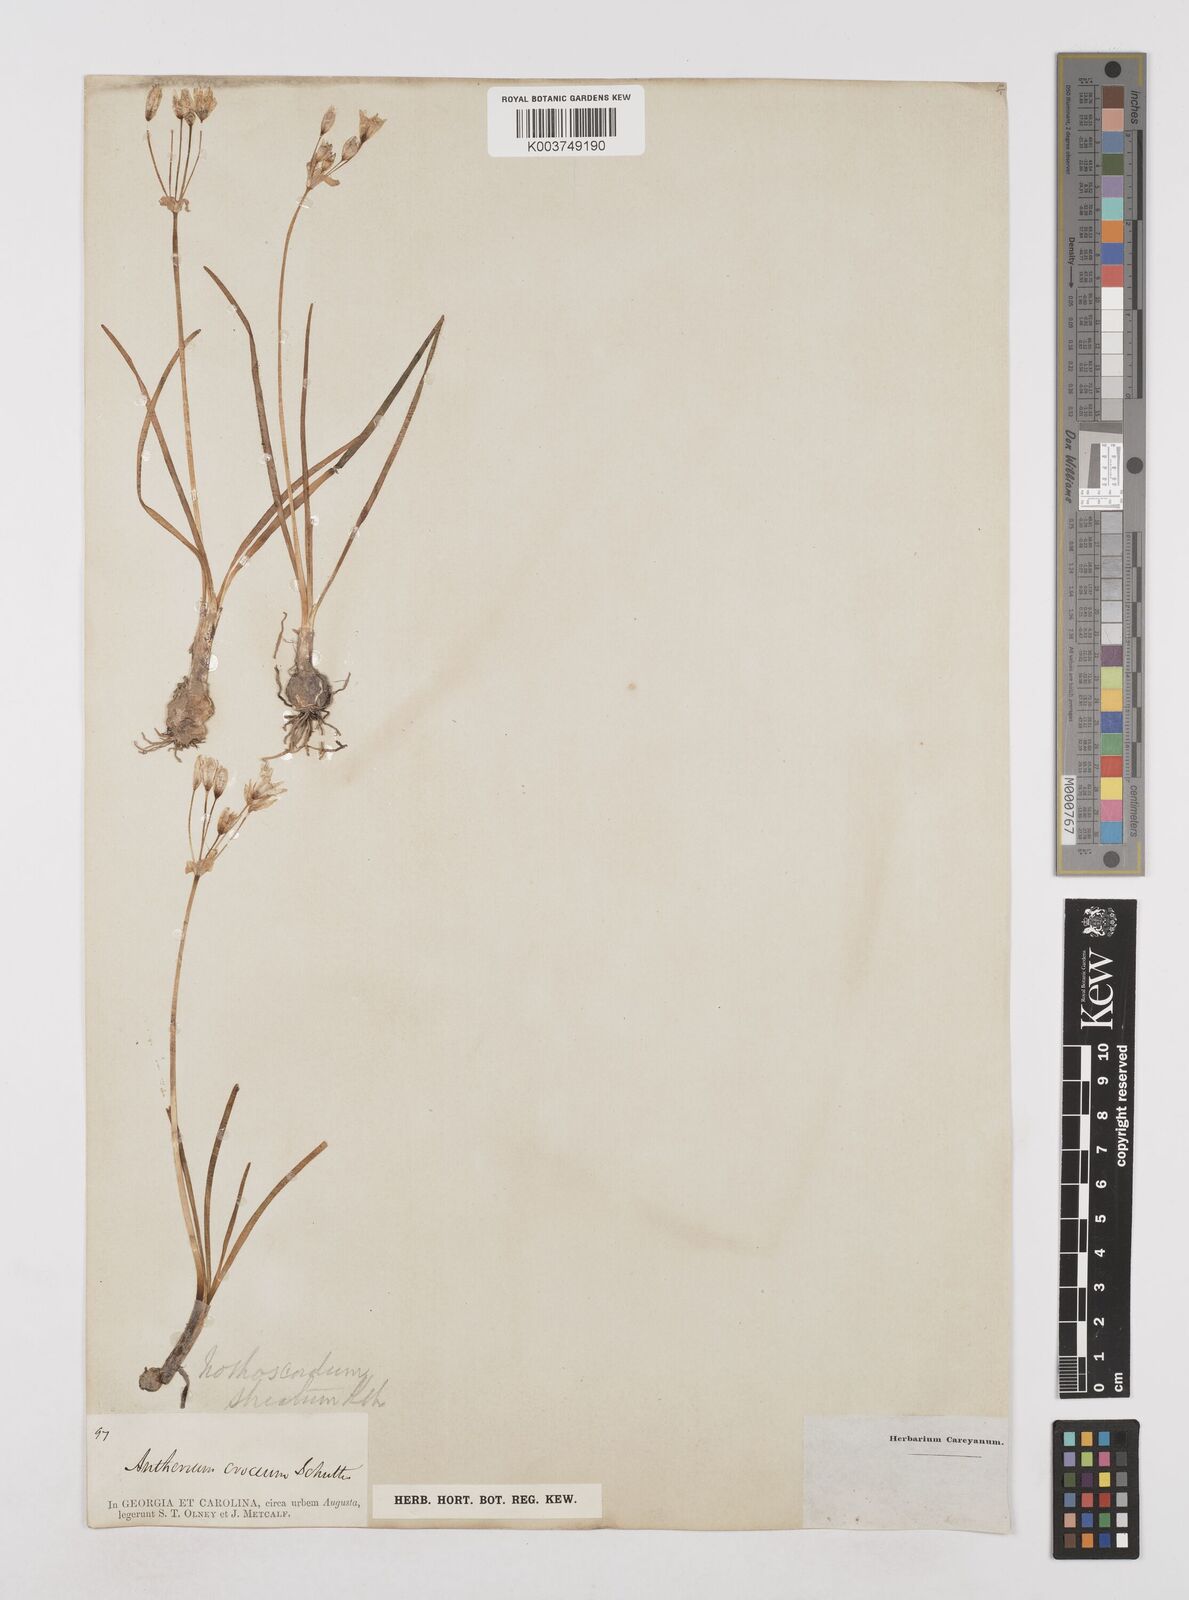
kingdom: Plantae
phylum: Tracheophyta
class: Liliopsida
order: Asparagales
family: Amaryllidaceae
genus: Nothoscordum
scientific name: Nothoscordum bivalve
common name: Crow-poison
